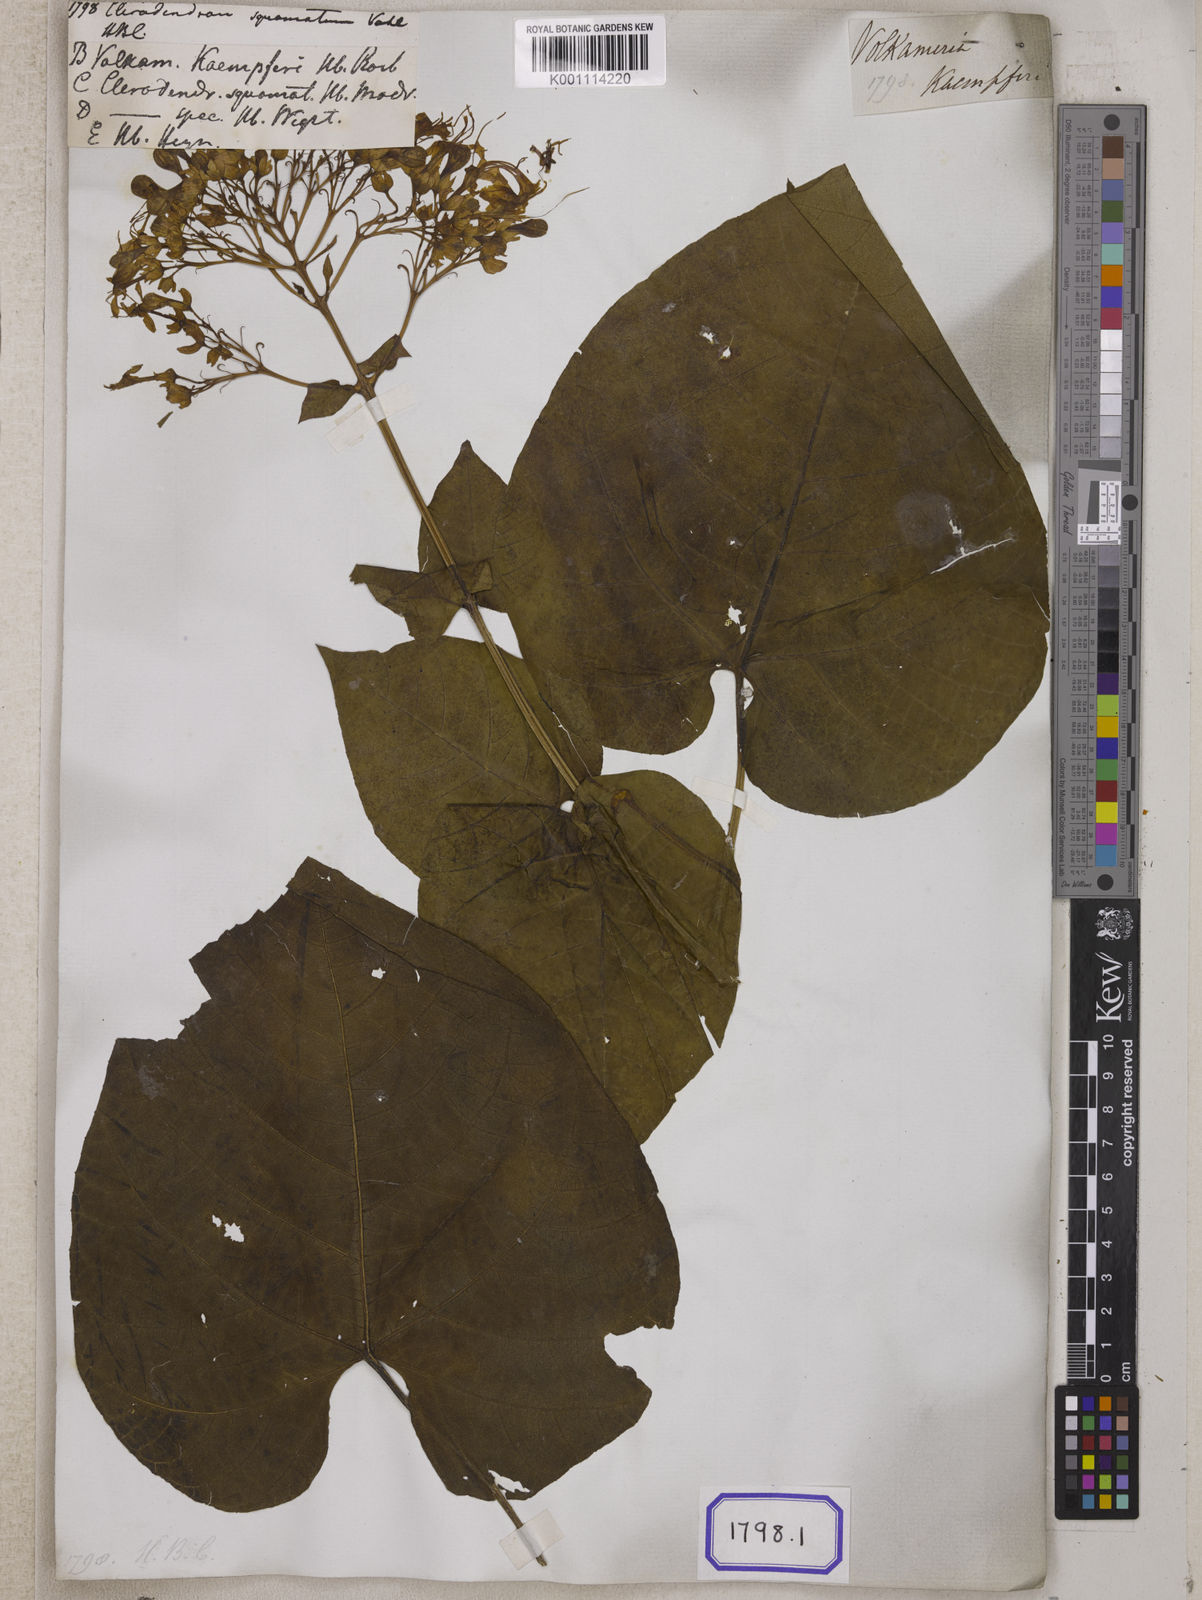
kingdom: Plantae
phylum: Tracheophyta
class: Magnoliopsida
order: Lamiales
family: Lamiaceae
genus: Clerodendrum
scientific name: Clerodendrum japonicum
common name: Japanese glorybower
